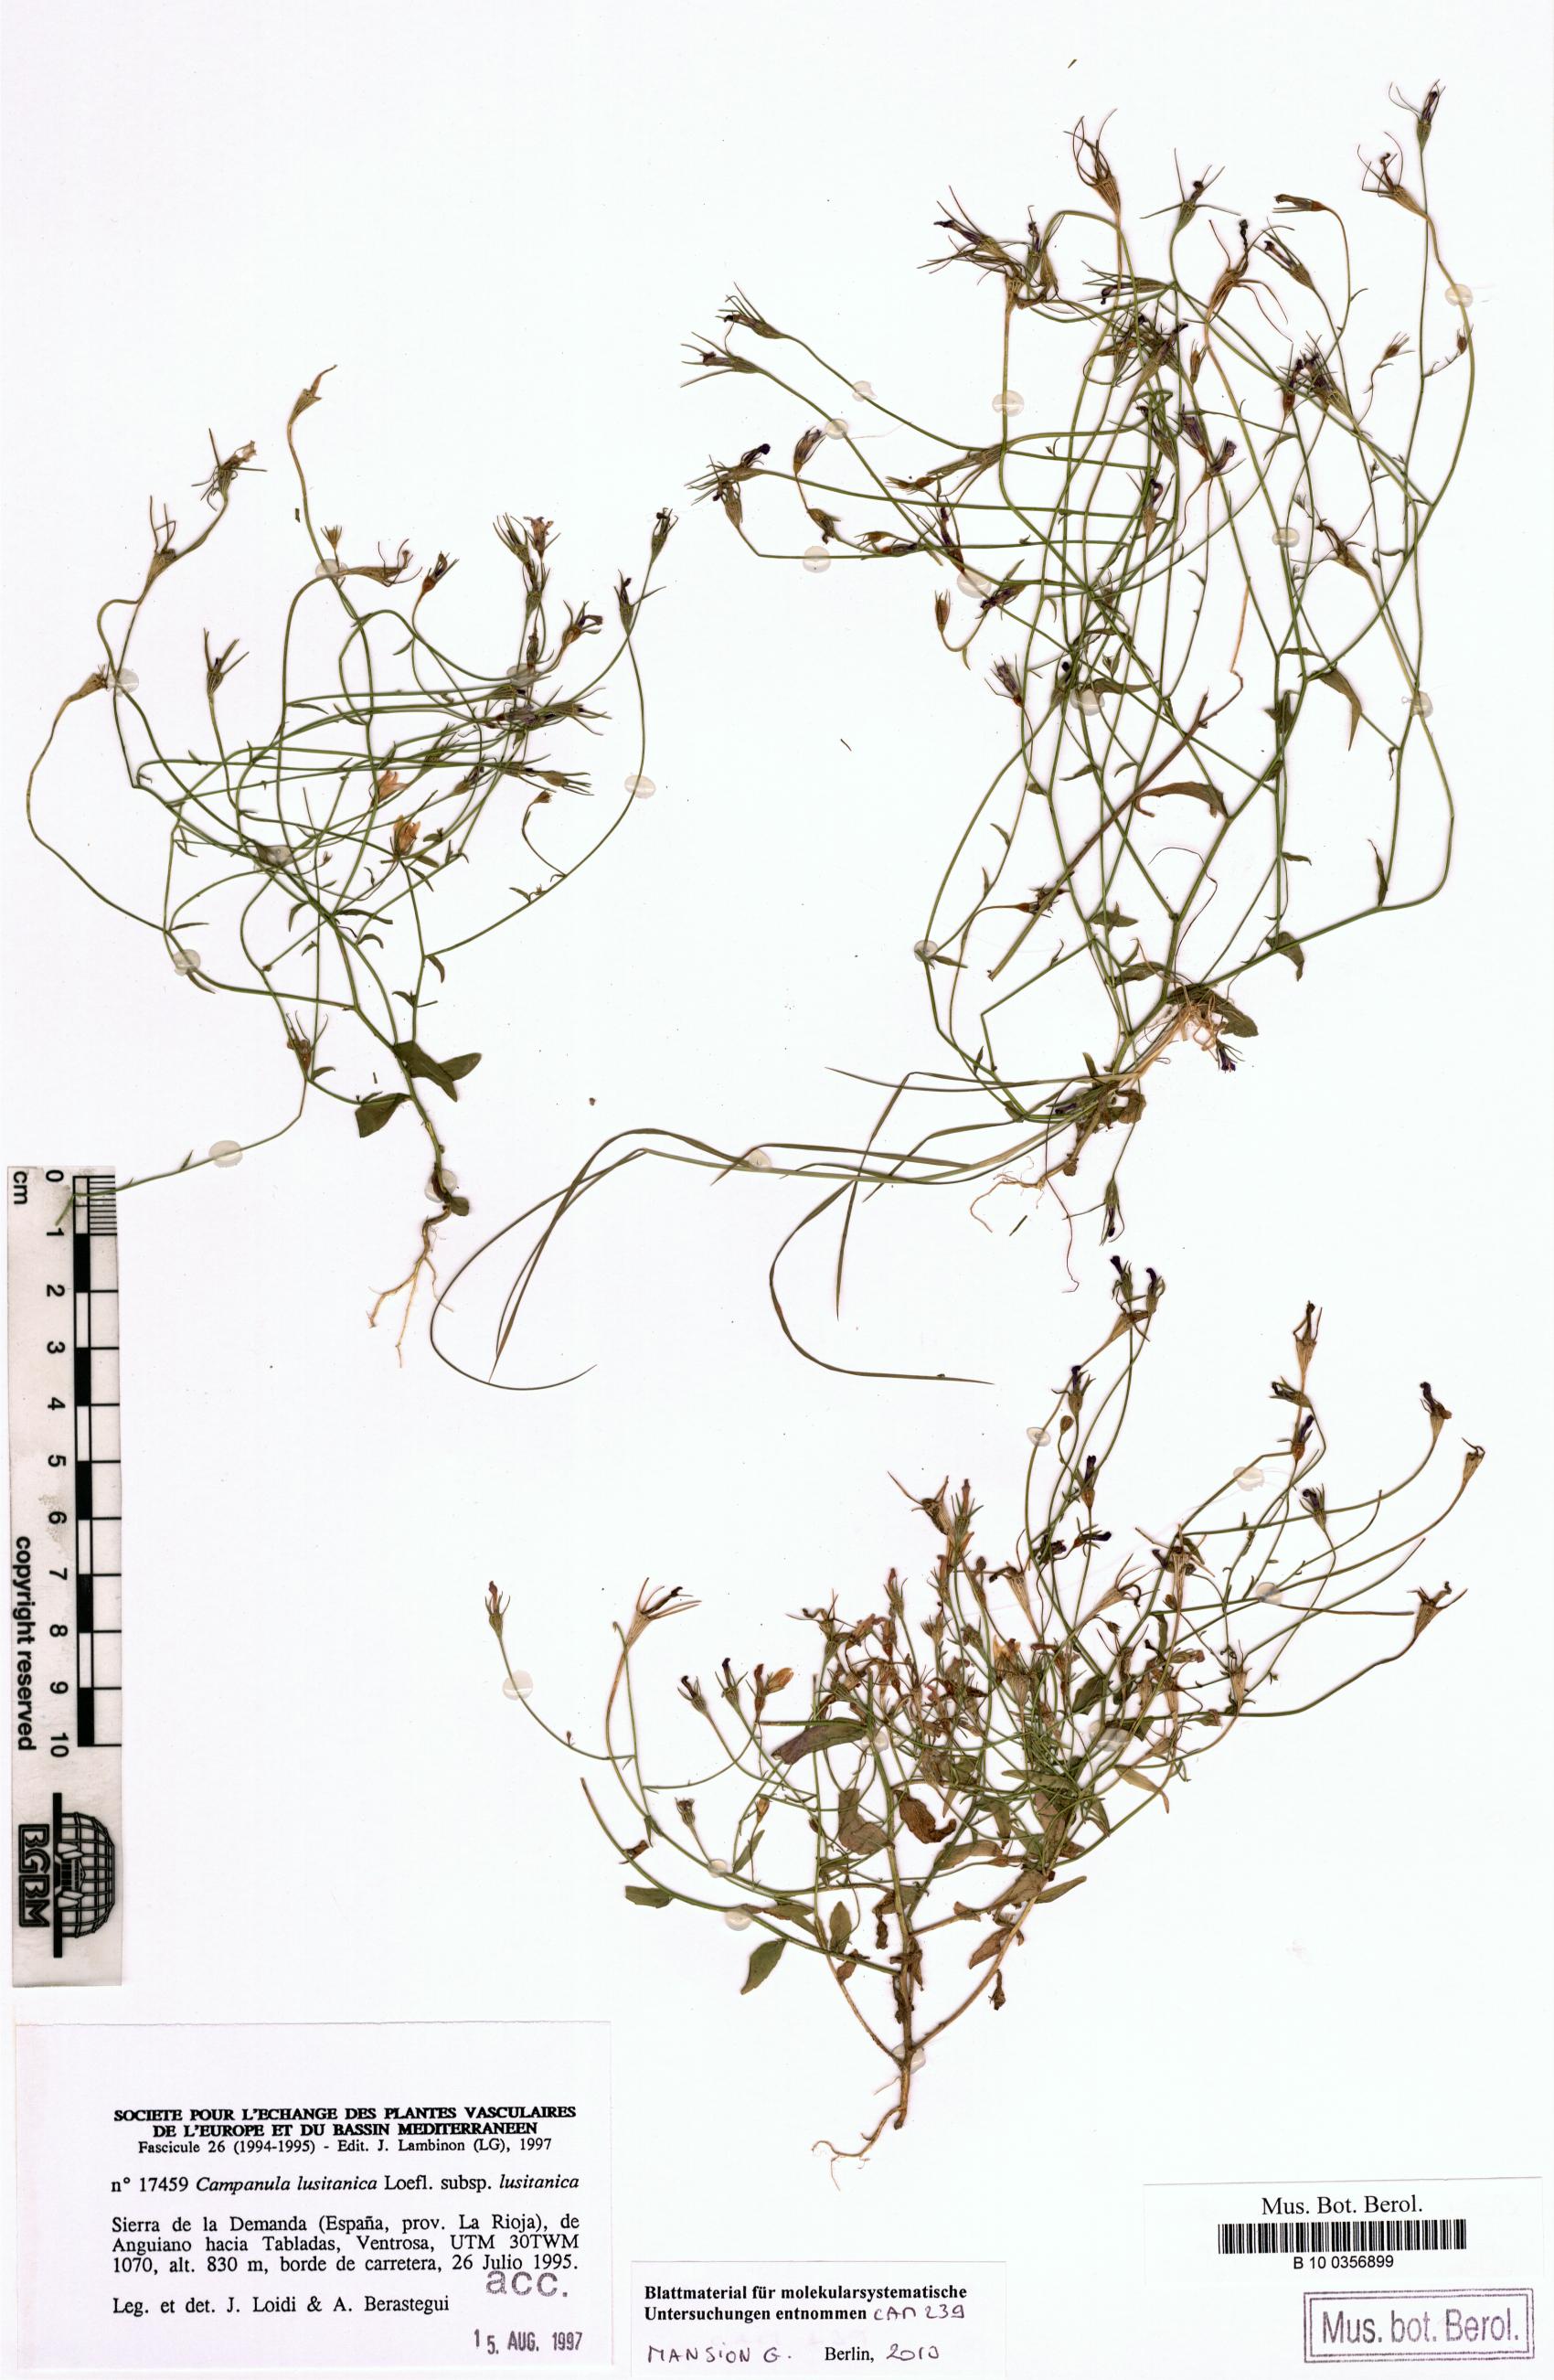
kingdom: Plantae
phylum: Tracheophyta
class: Magnoliopsida
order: Asterales
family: Campanulaceae
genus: Campanula
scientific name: Campanula lusitanica
